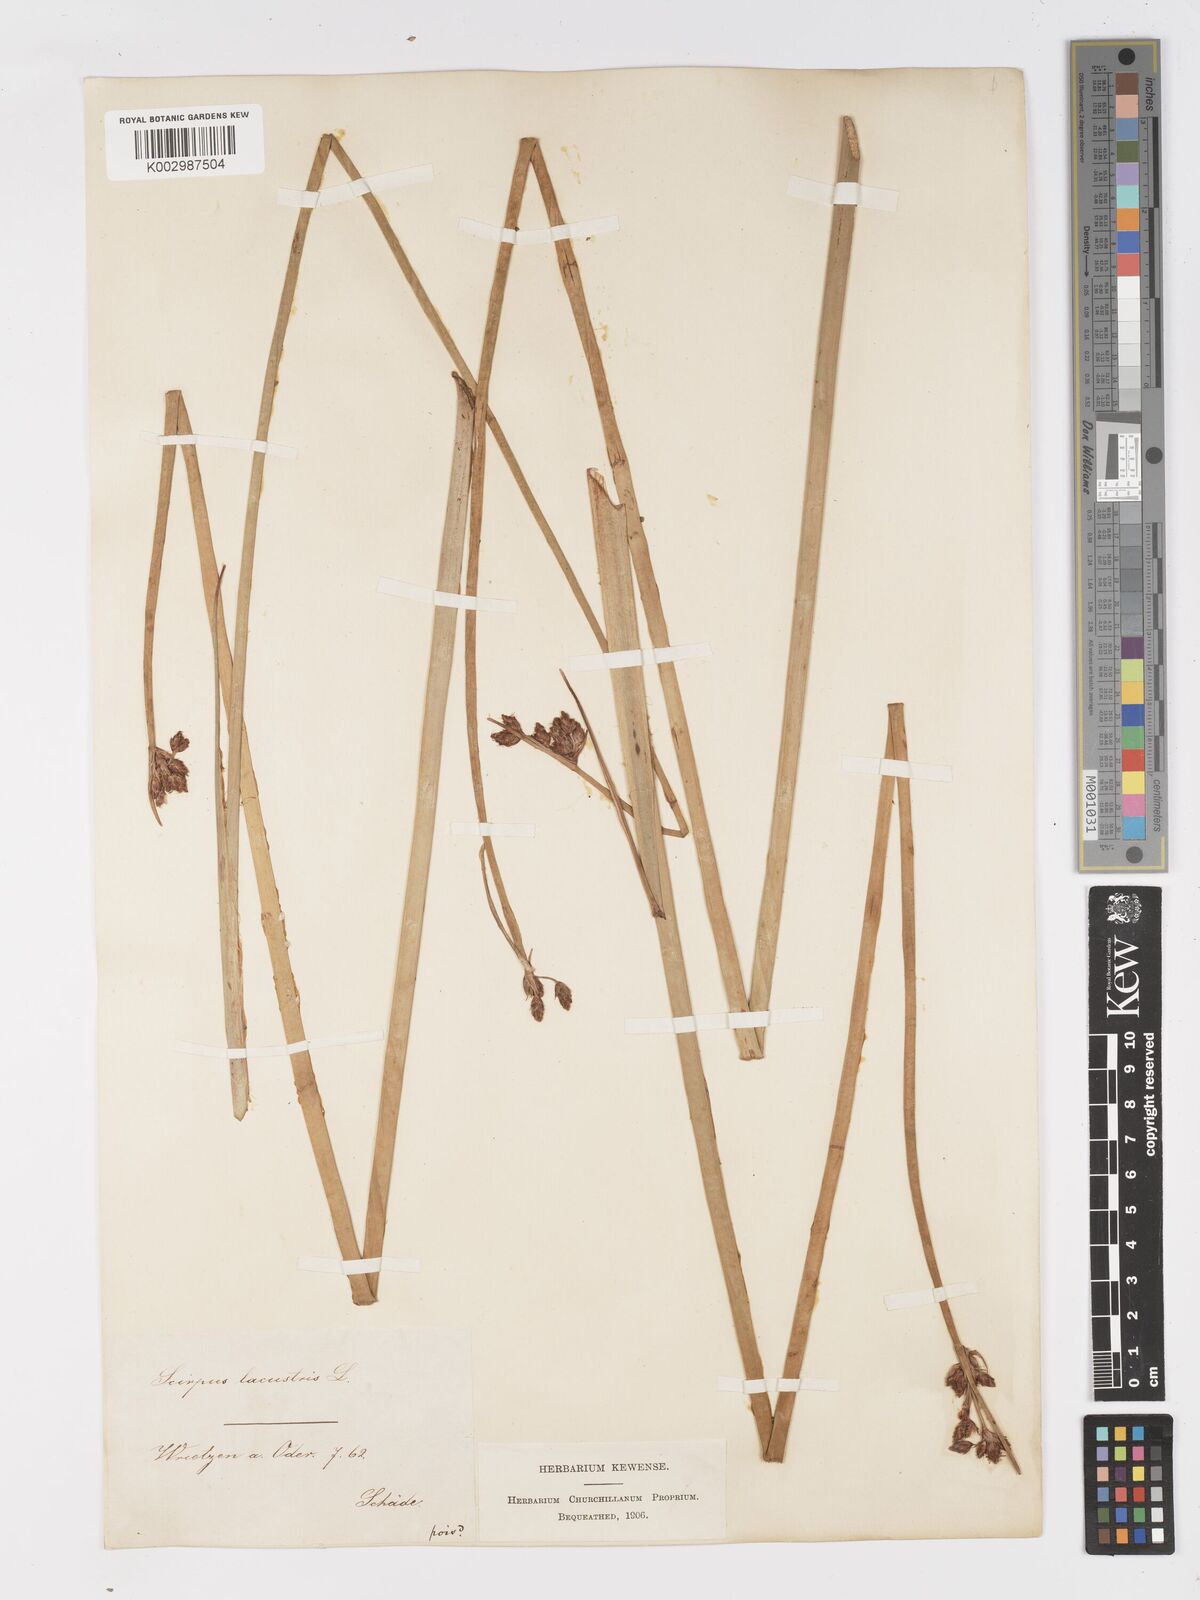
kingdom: Plantae
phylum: Tracheophyta
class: Liliopsida
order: Poales
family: Cyperaceae
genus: Schoenoplectus
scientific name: Schoenoplectus lacustris
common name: Common club-rush
